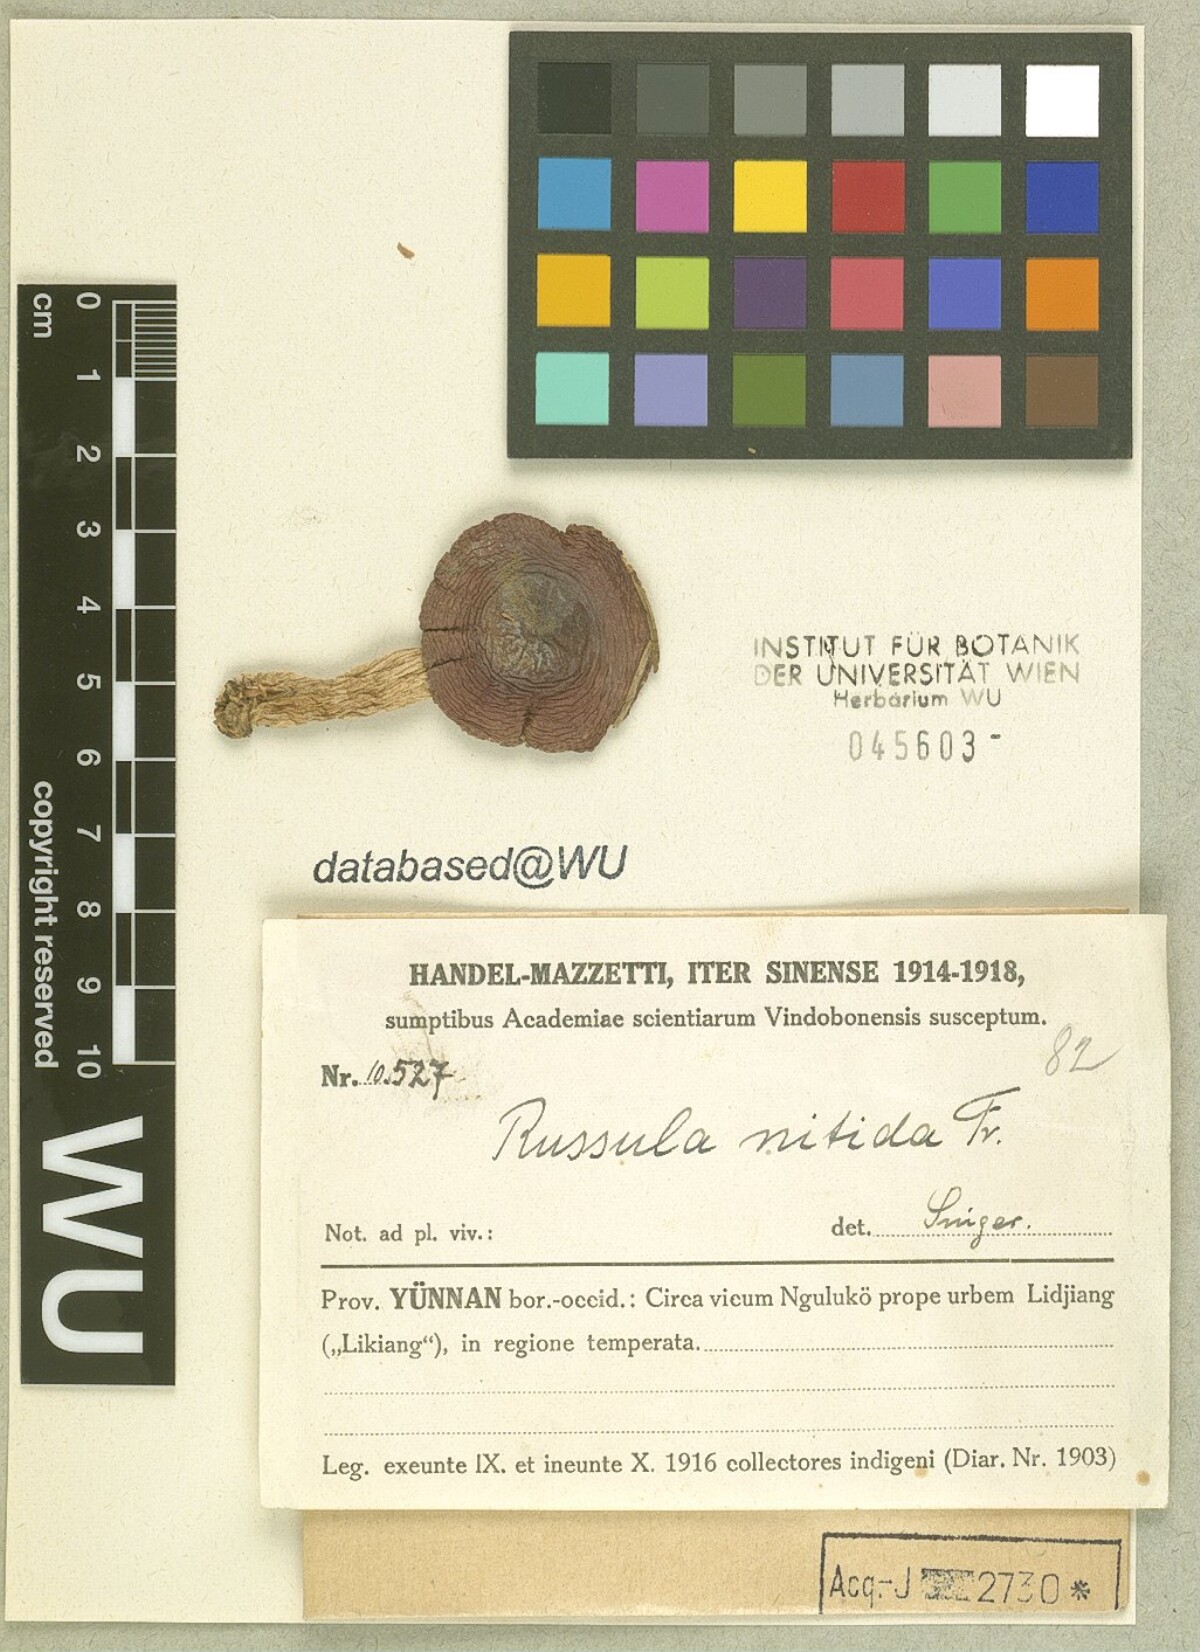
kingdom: Fungi
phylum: Basidiomycota
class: Agaricomycetes
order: Russulales
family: Russulaceae
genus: Russula
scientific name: Russula nitida
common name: Purple swamp brittlegill
